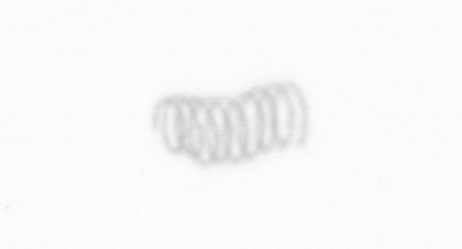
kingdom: Chromista
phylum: Ochrophyta
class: Bacillariophyceae
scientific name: Bacillariophyceae
